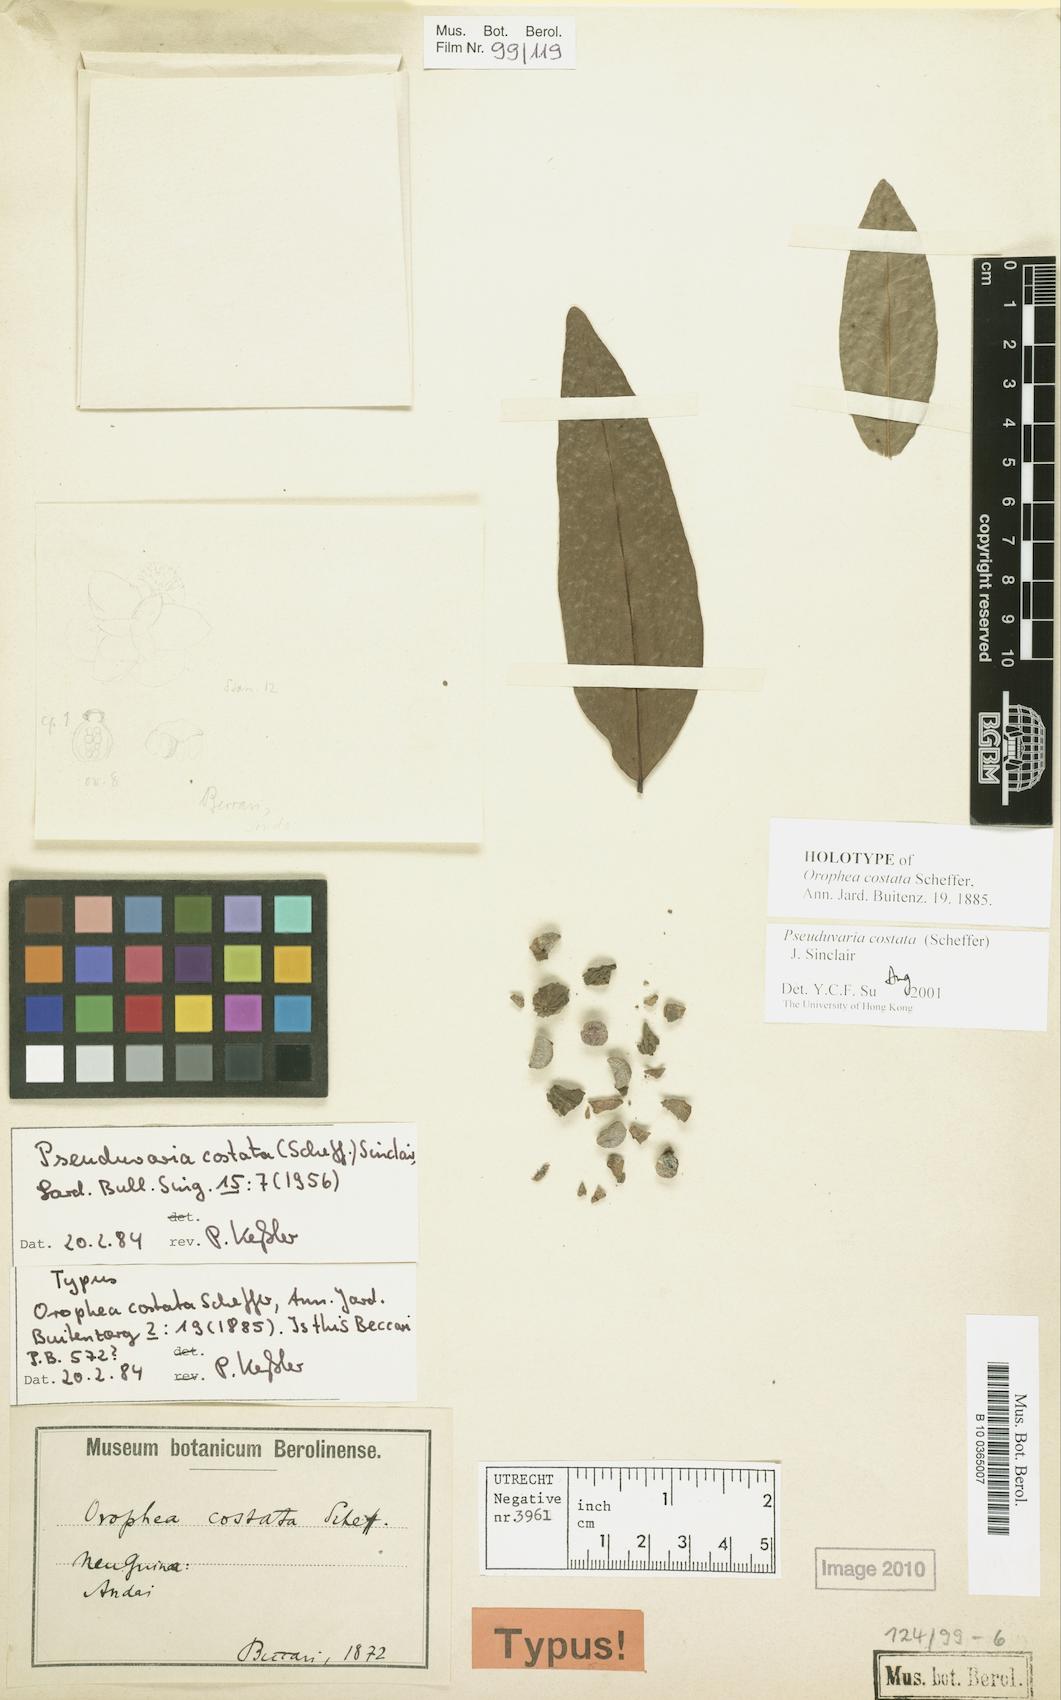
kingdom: Plantae
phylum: Tracheophyta
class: Magnoliopsida
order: Magnoliales
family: Annonaceae
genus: Pseuduvaria
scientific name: Pseuduvaria costata
